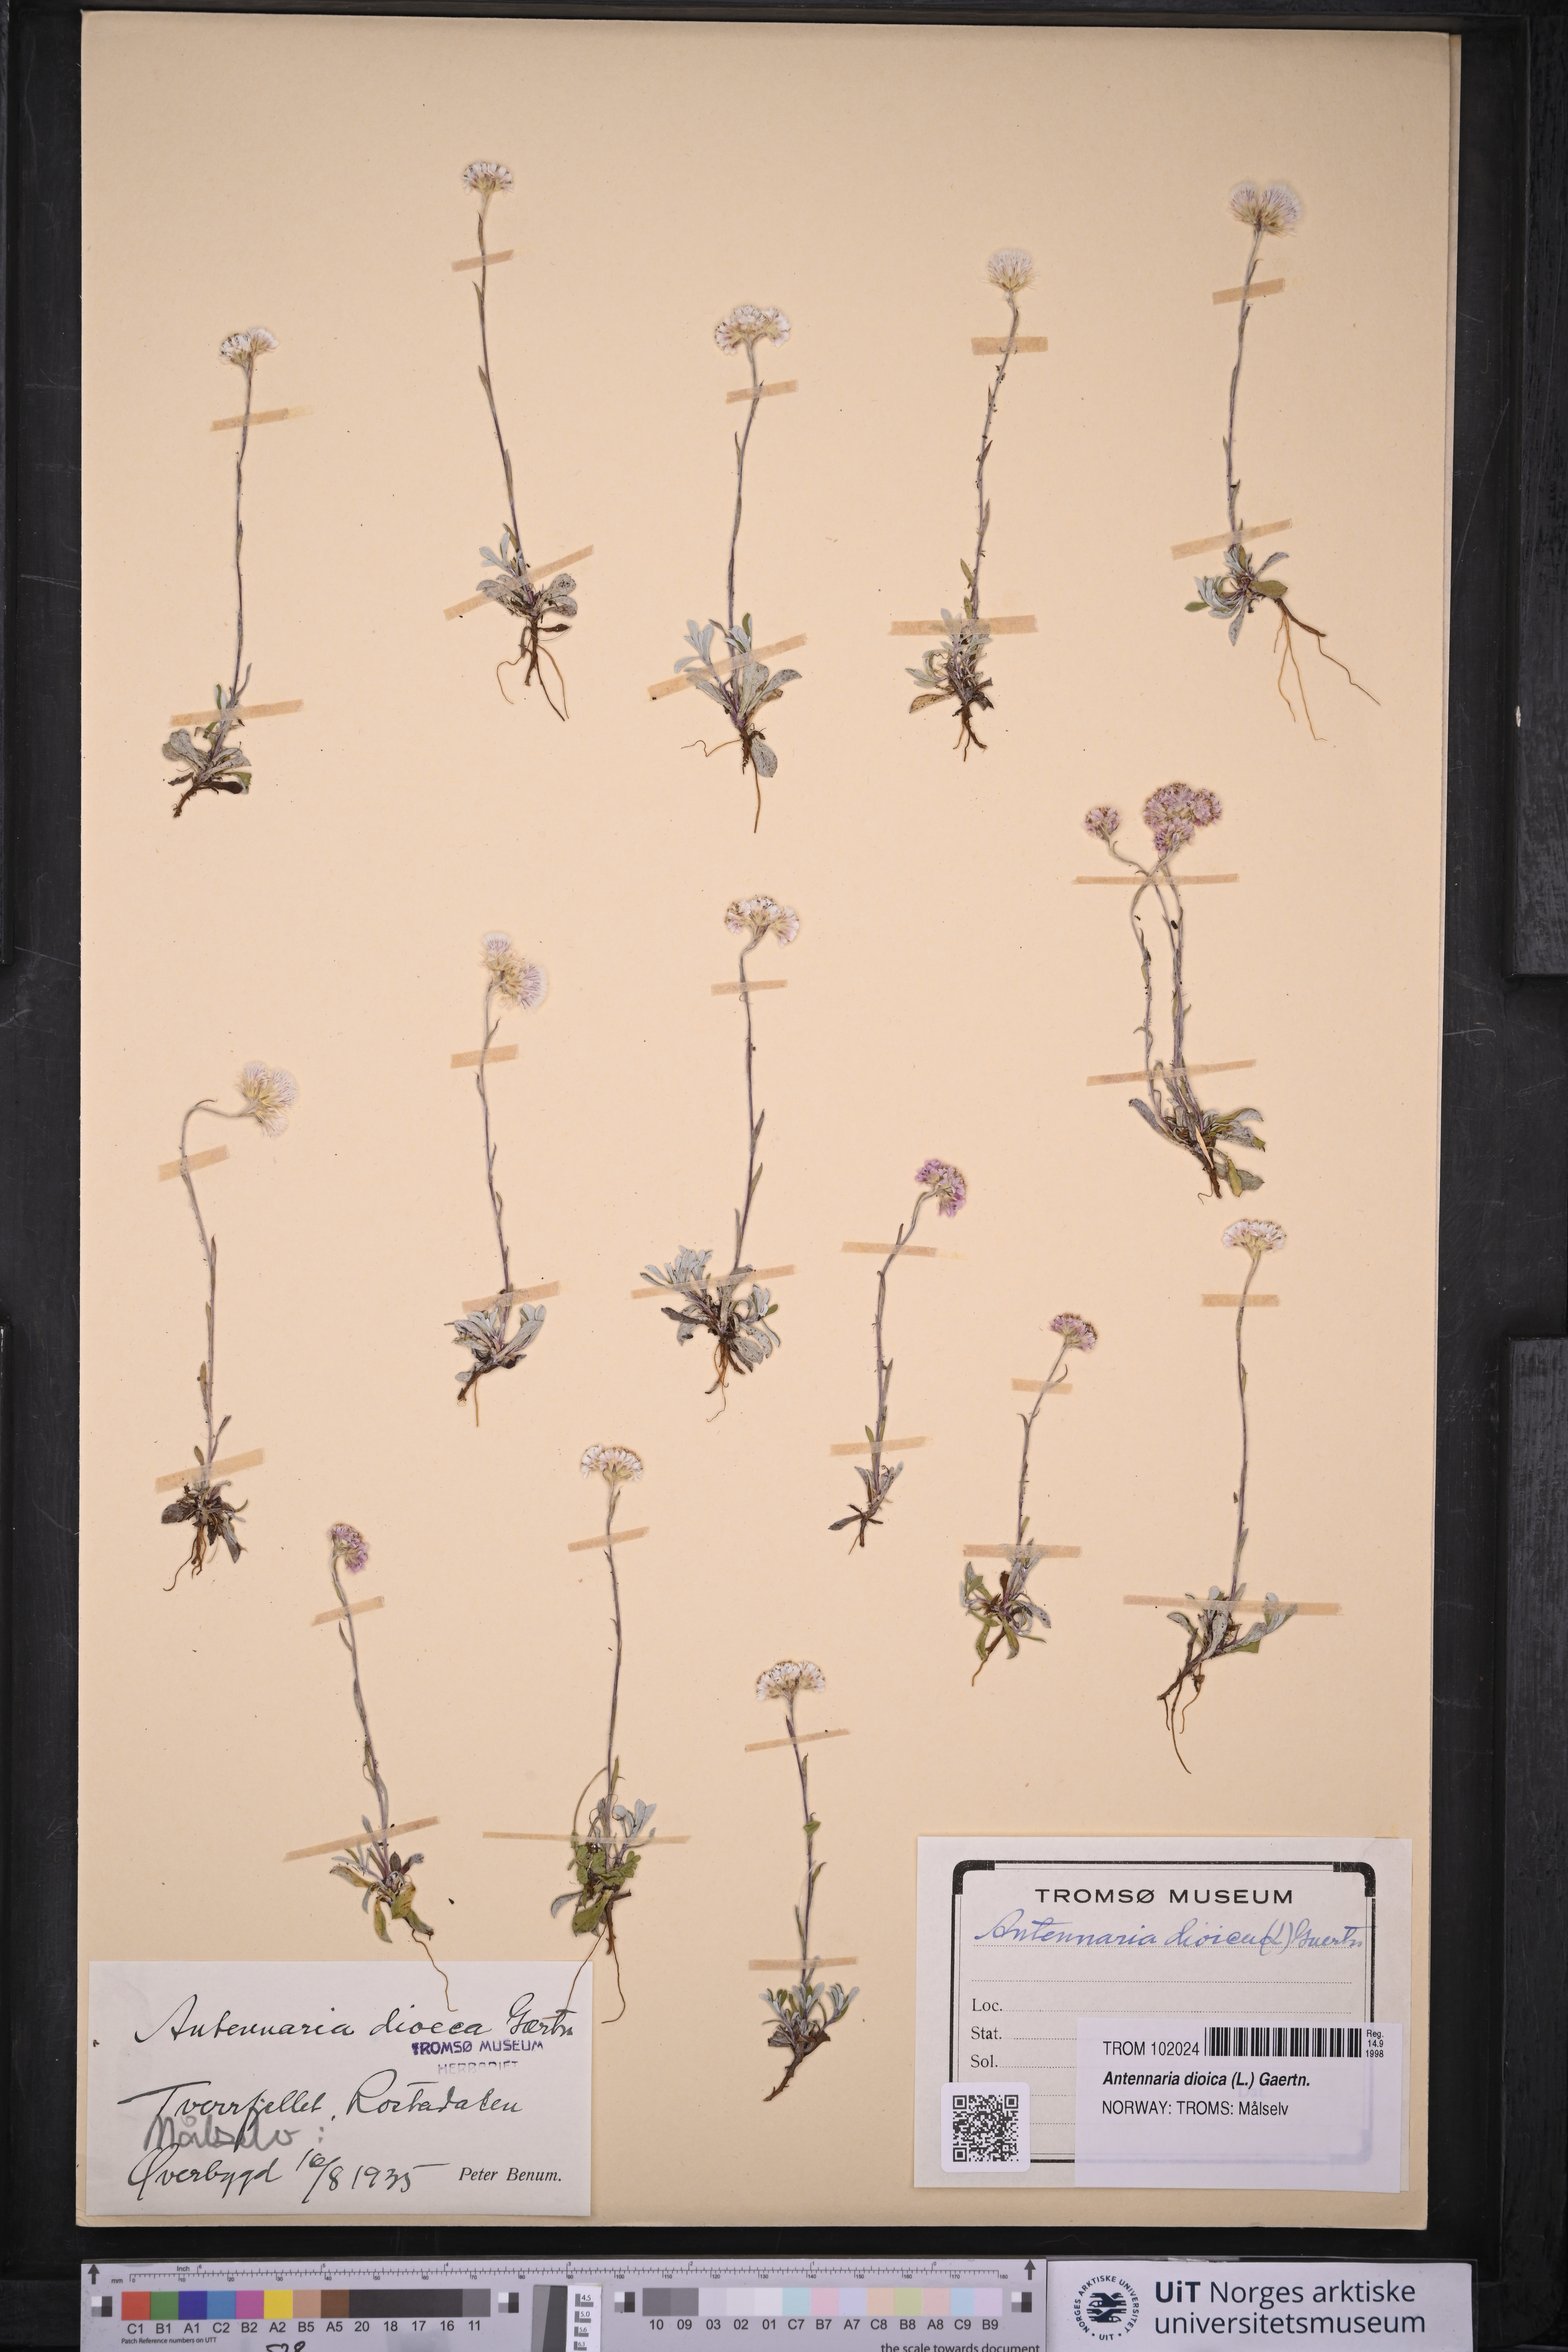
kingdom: Plantae
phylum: Tracheophyta
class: Magnoliopsida
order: Asterales
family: Asteraceae
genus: Antennaria
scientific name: Antennaria dioica
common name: Mountain everlasting
